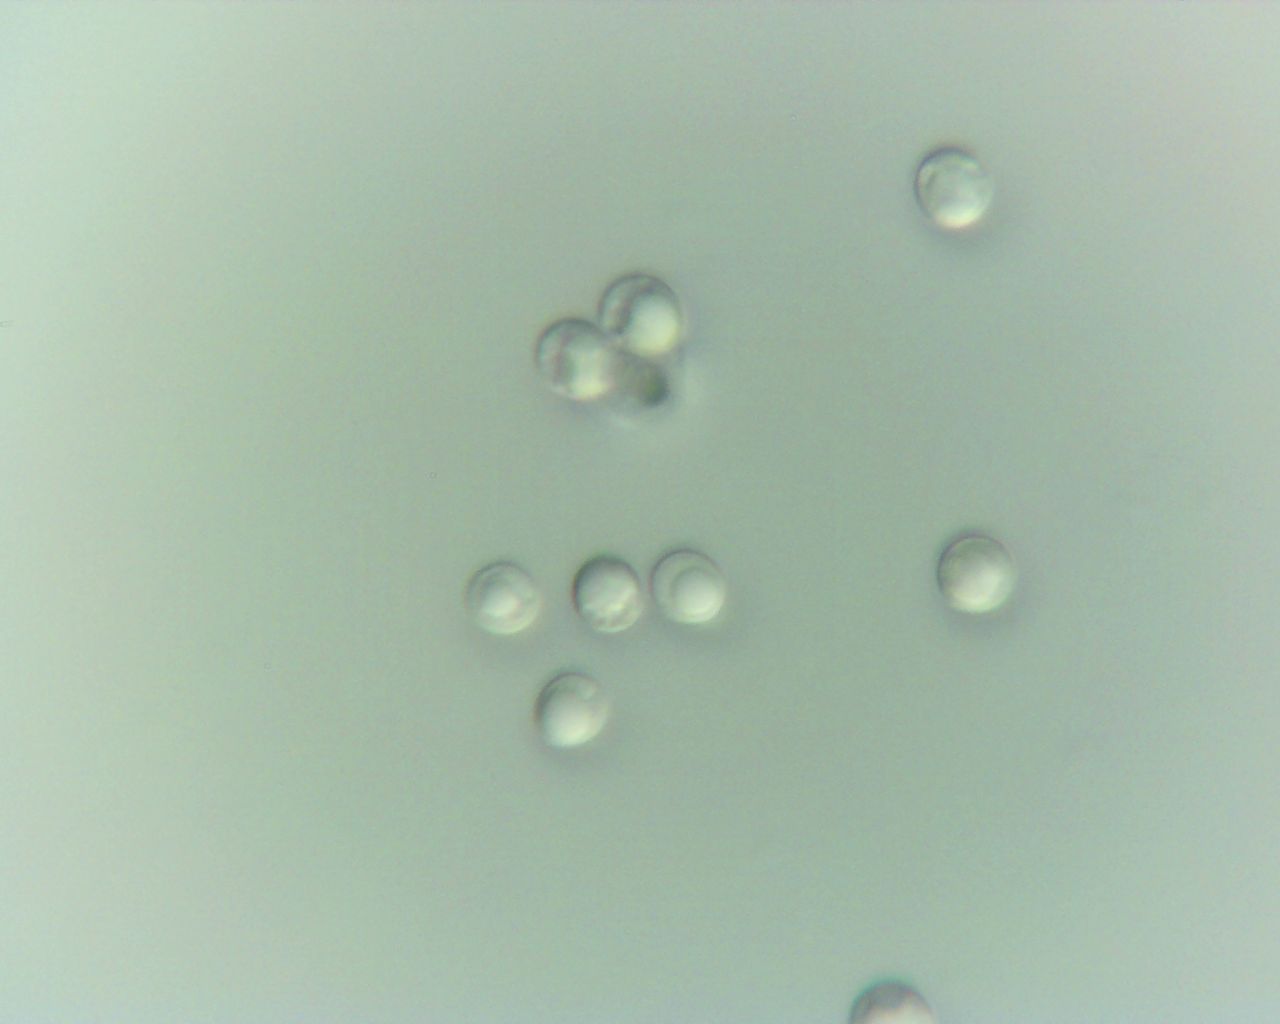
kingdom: Fungi
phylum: Basidiomycota
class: Agaricomycetes
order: Polyporales
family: Meruliaceae
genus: Physisporinus
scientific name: Physisporinus vitreus
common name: mastesvamp
